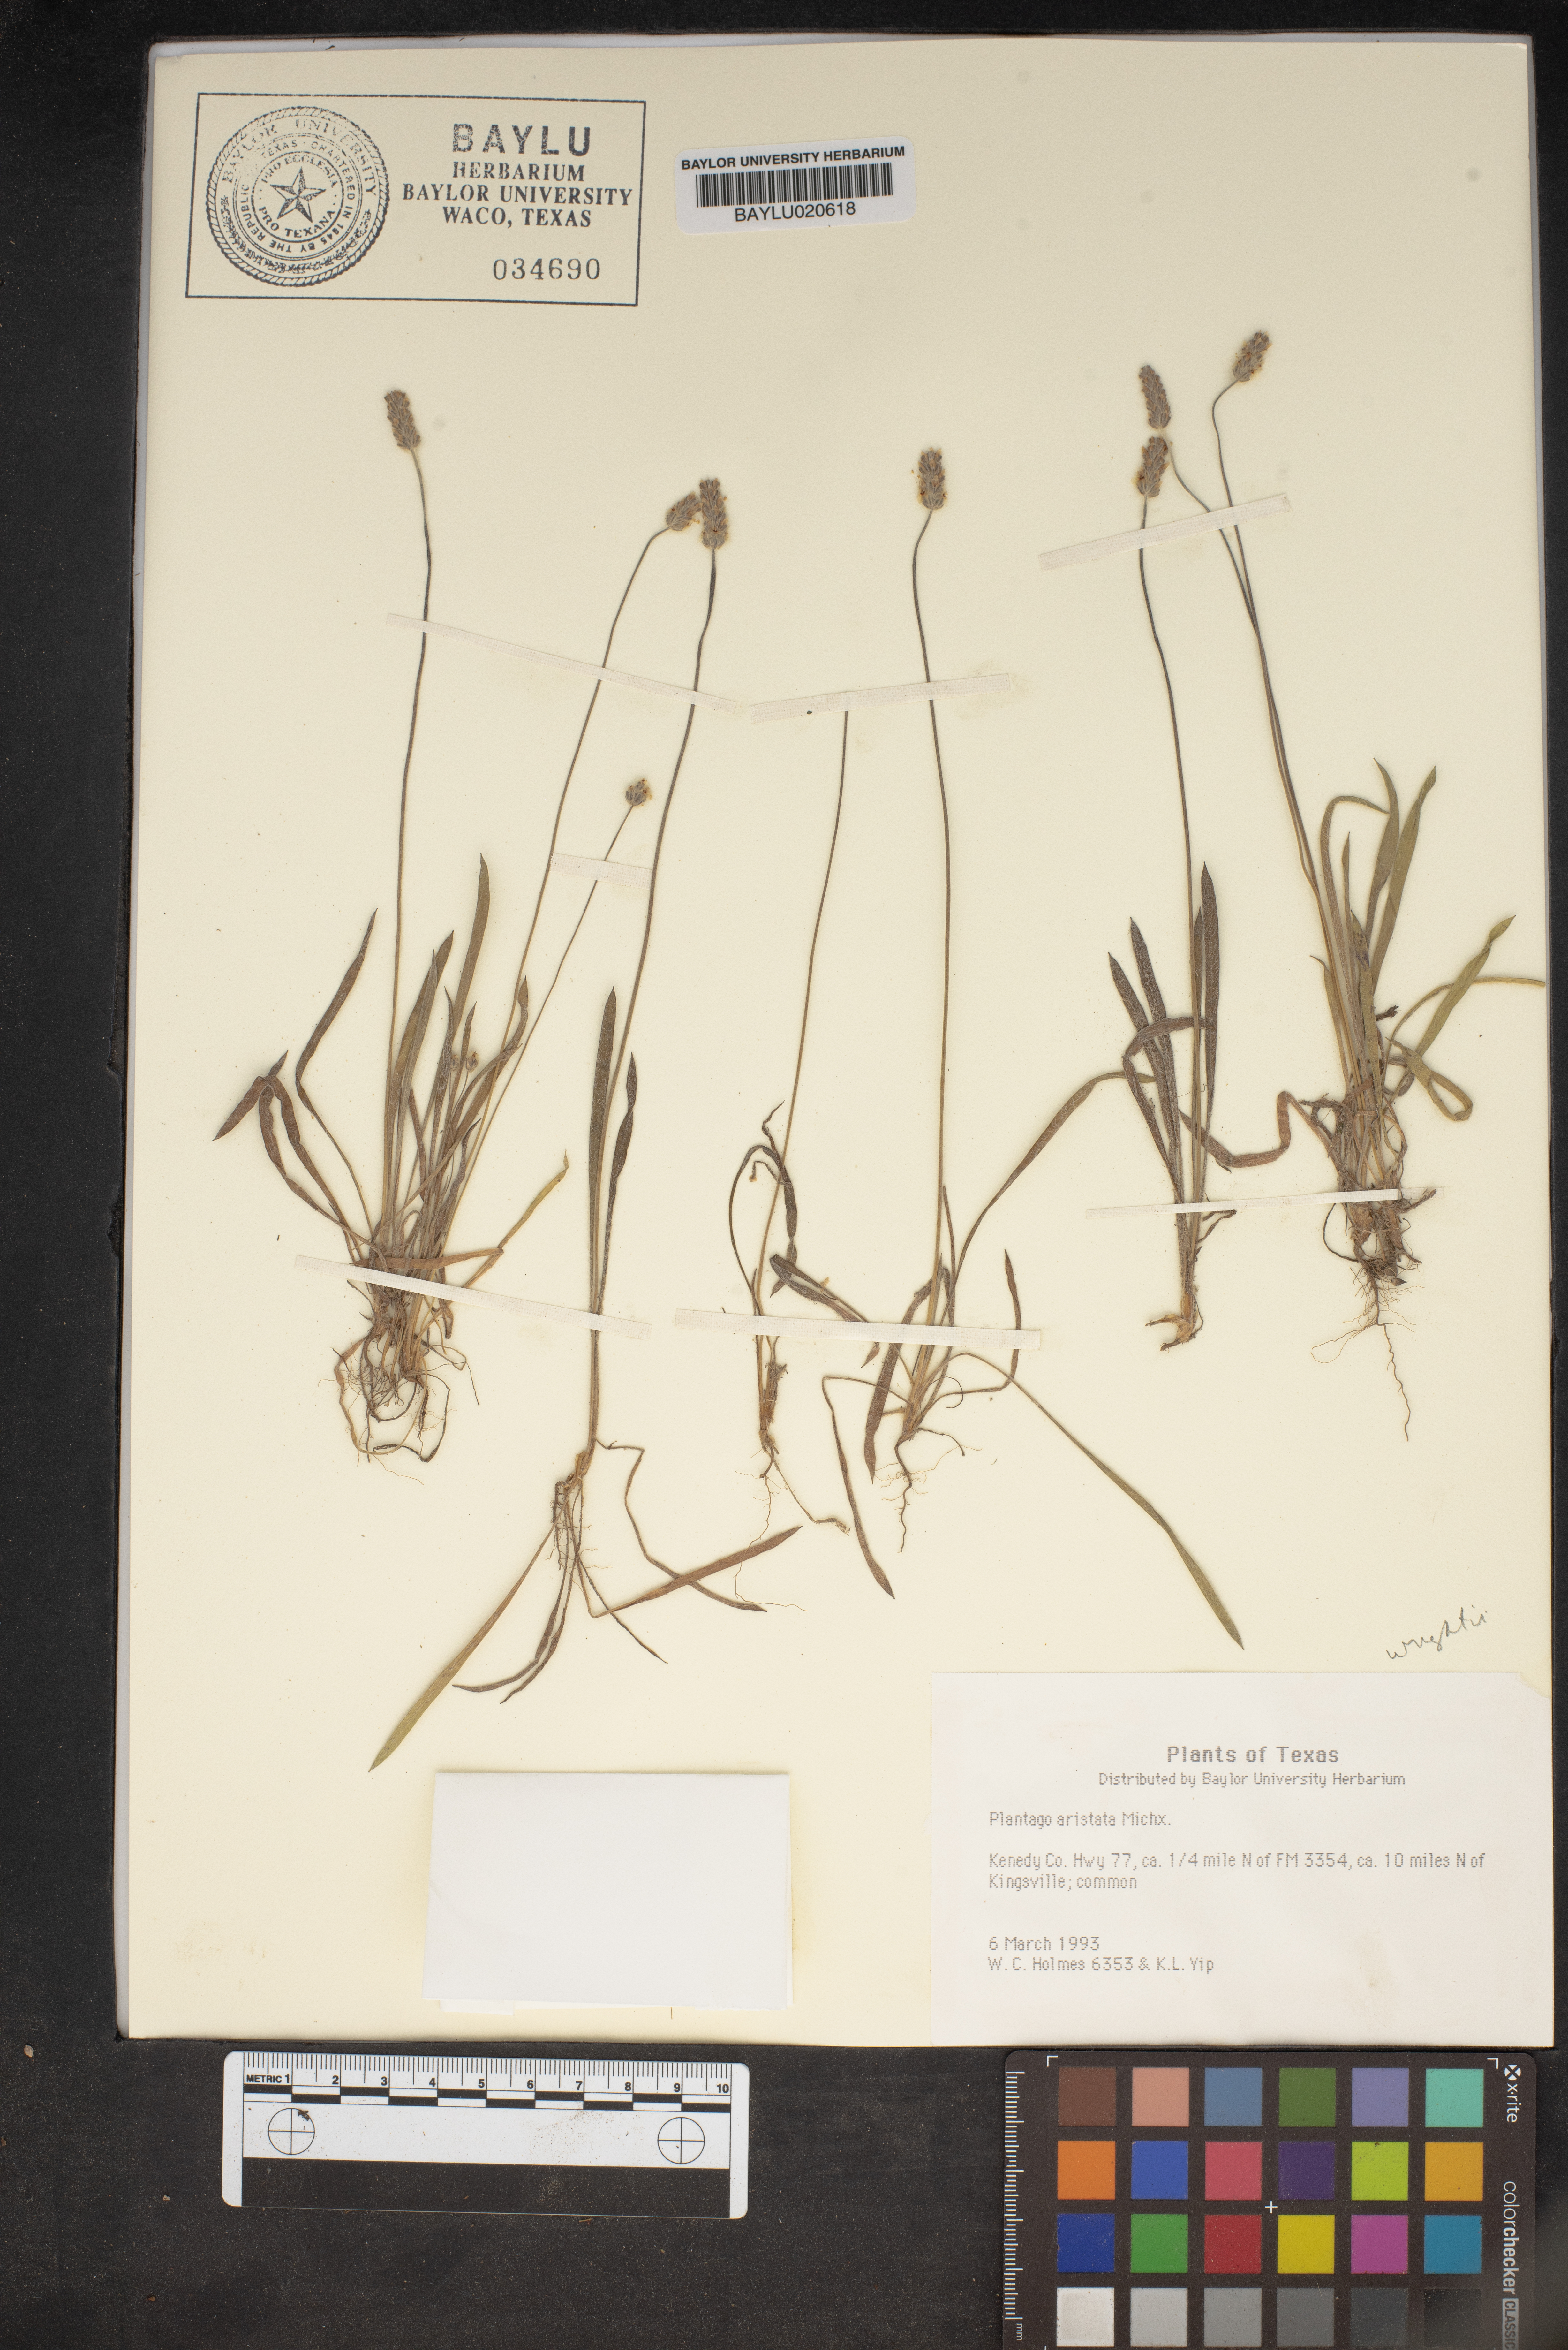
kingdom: Plantae
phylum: Tracheophyta
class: Magnoliopsida
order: Lamiales
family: Plantaginaceae
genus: Plantago
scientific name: Plantago aristata
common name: Bracted plantain
